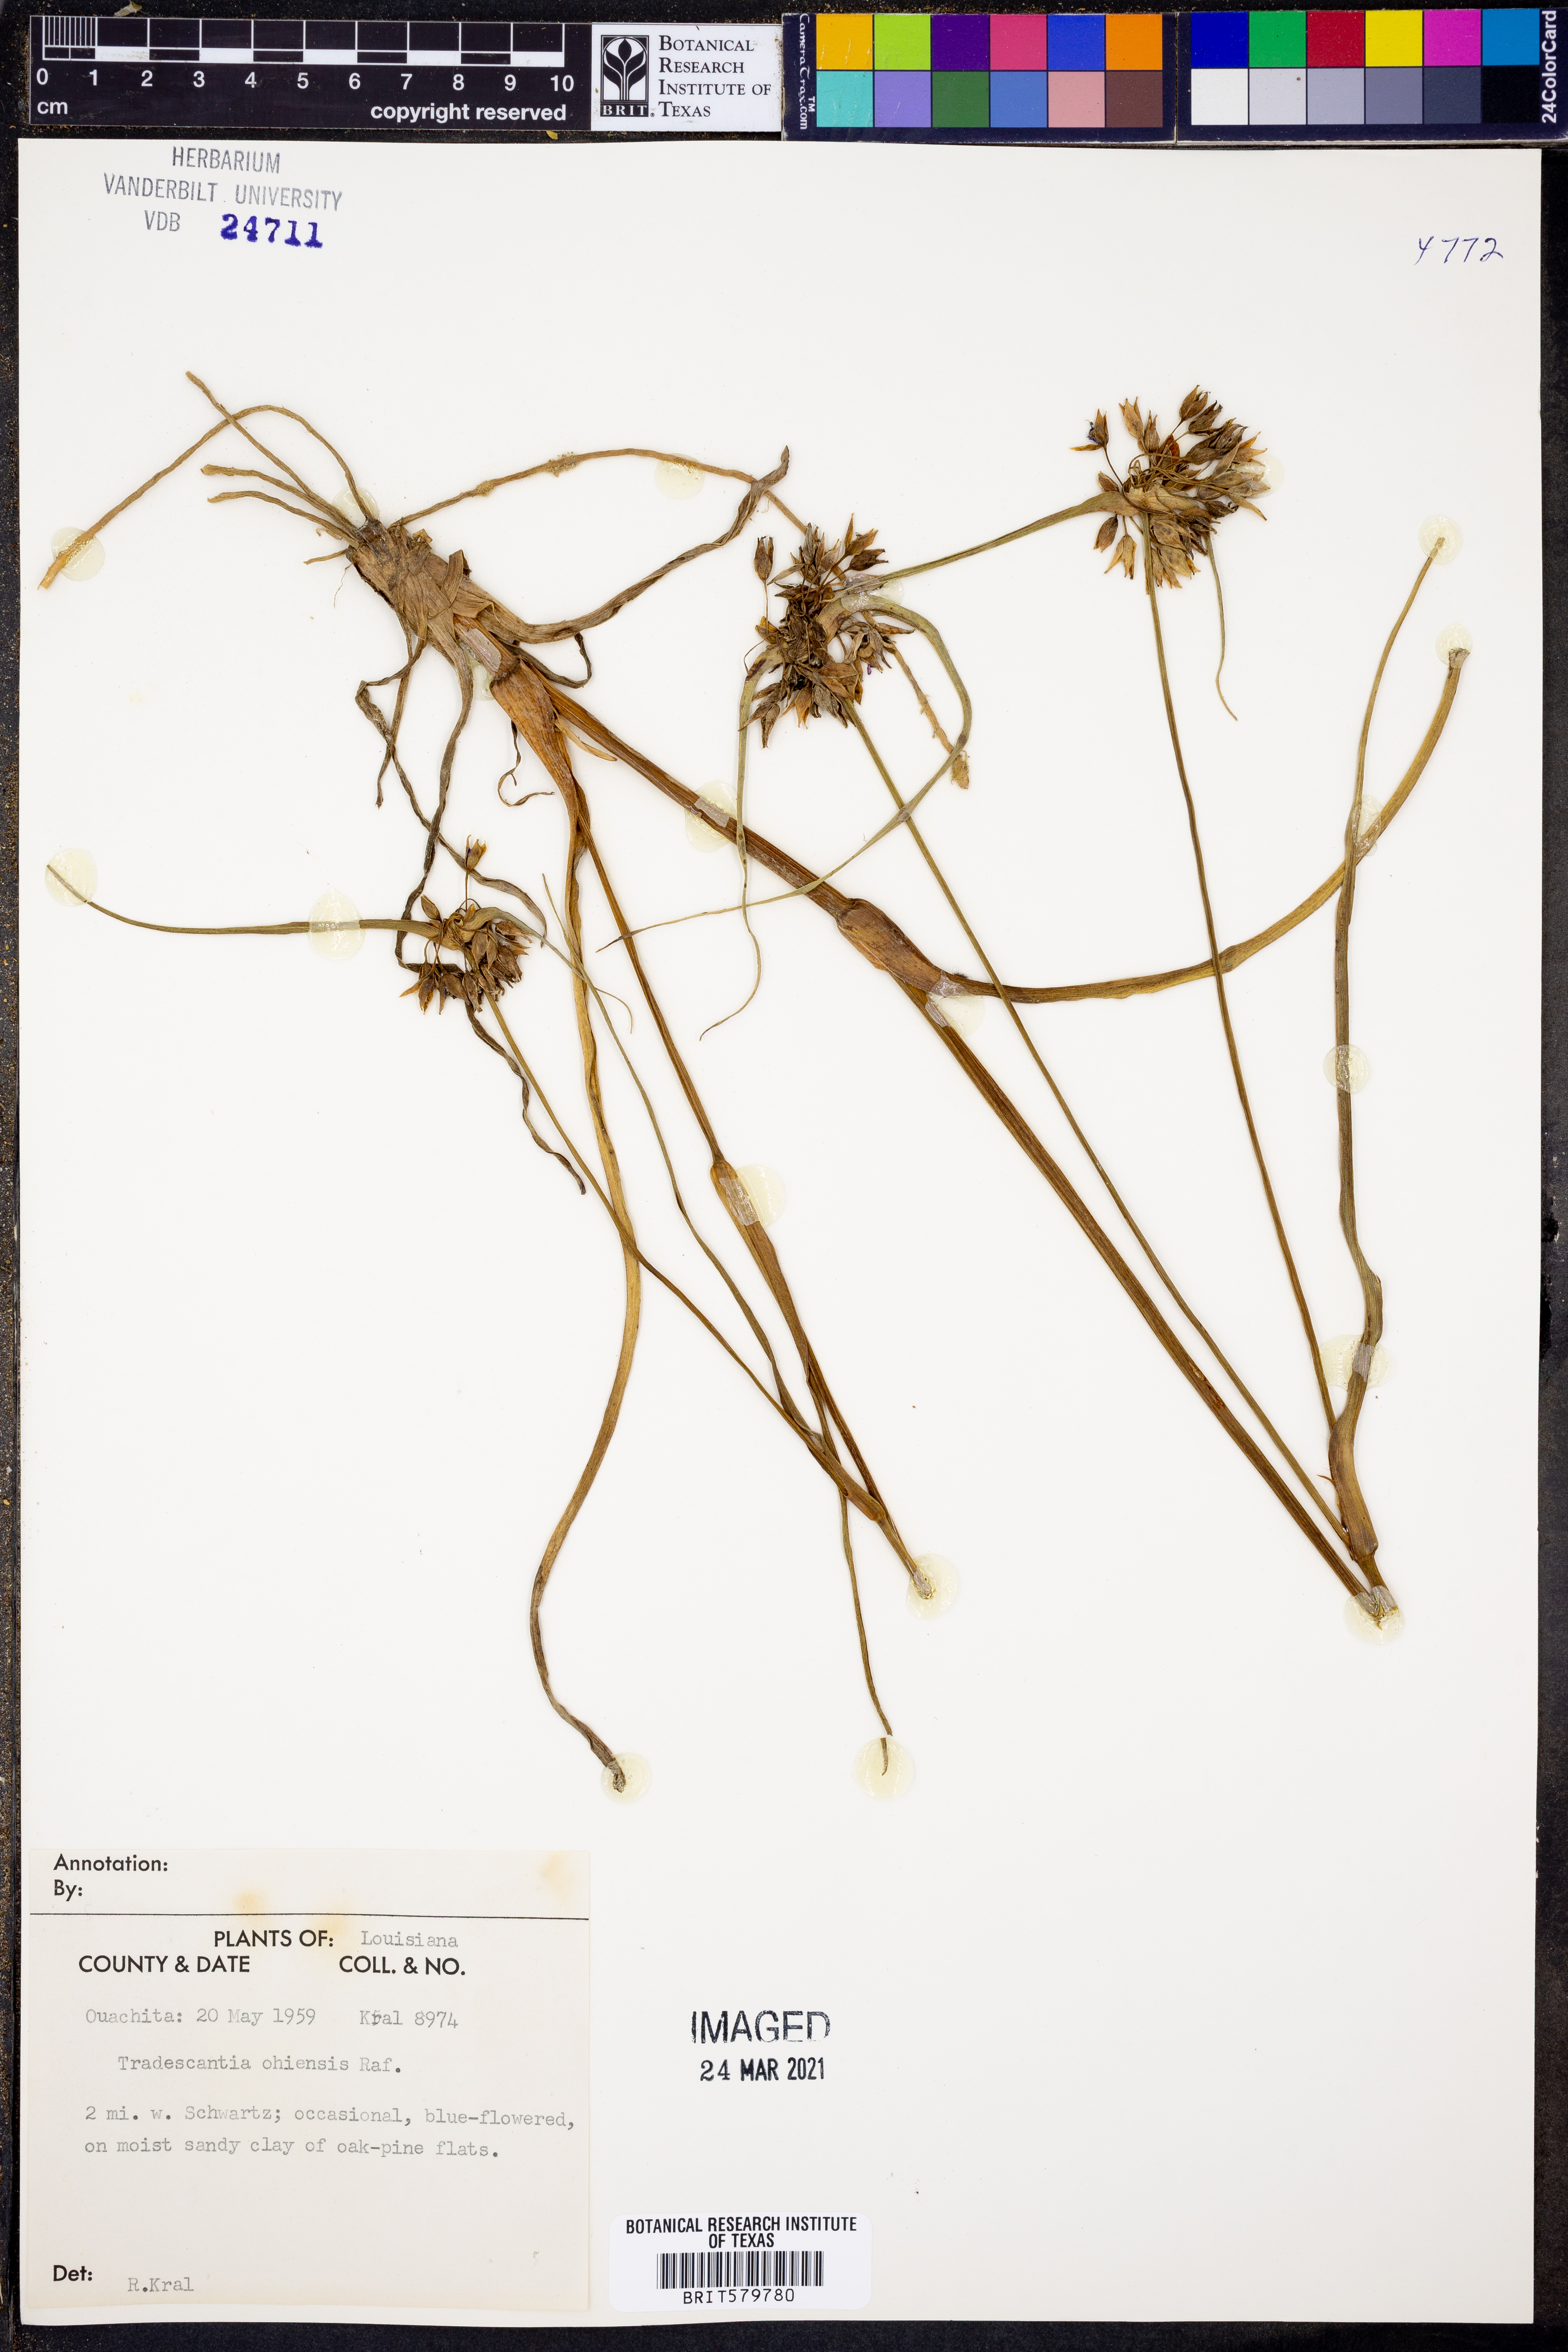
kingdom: Plantae
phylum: Tracheophyta
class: Liliopsida
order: Commelinales
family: Commelinaceae
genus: Tradescantia
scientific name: Tradescantia ohiensis
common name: Ohio spiderwort
